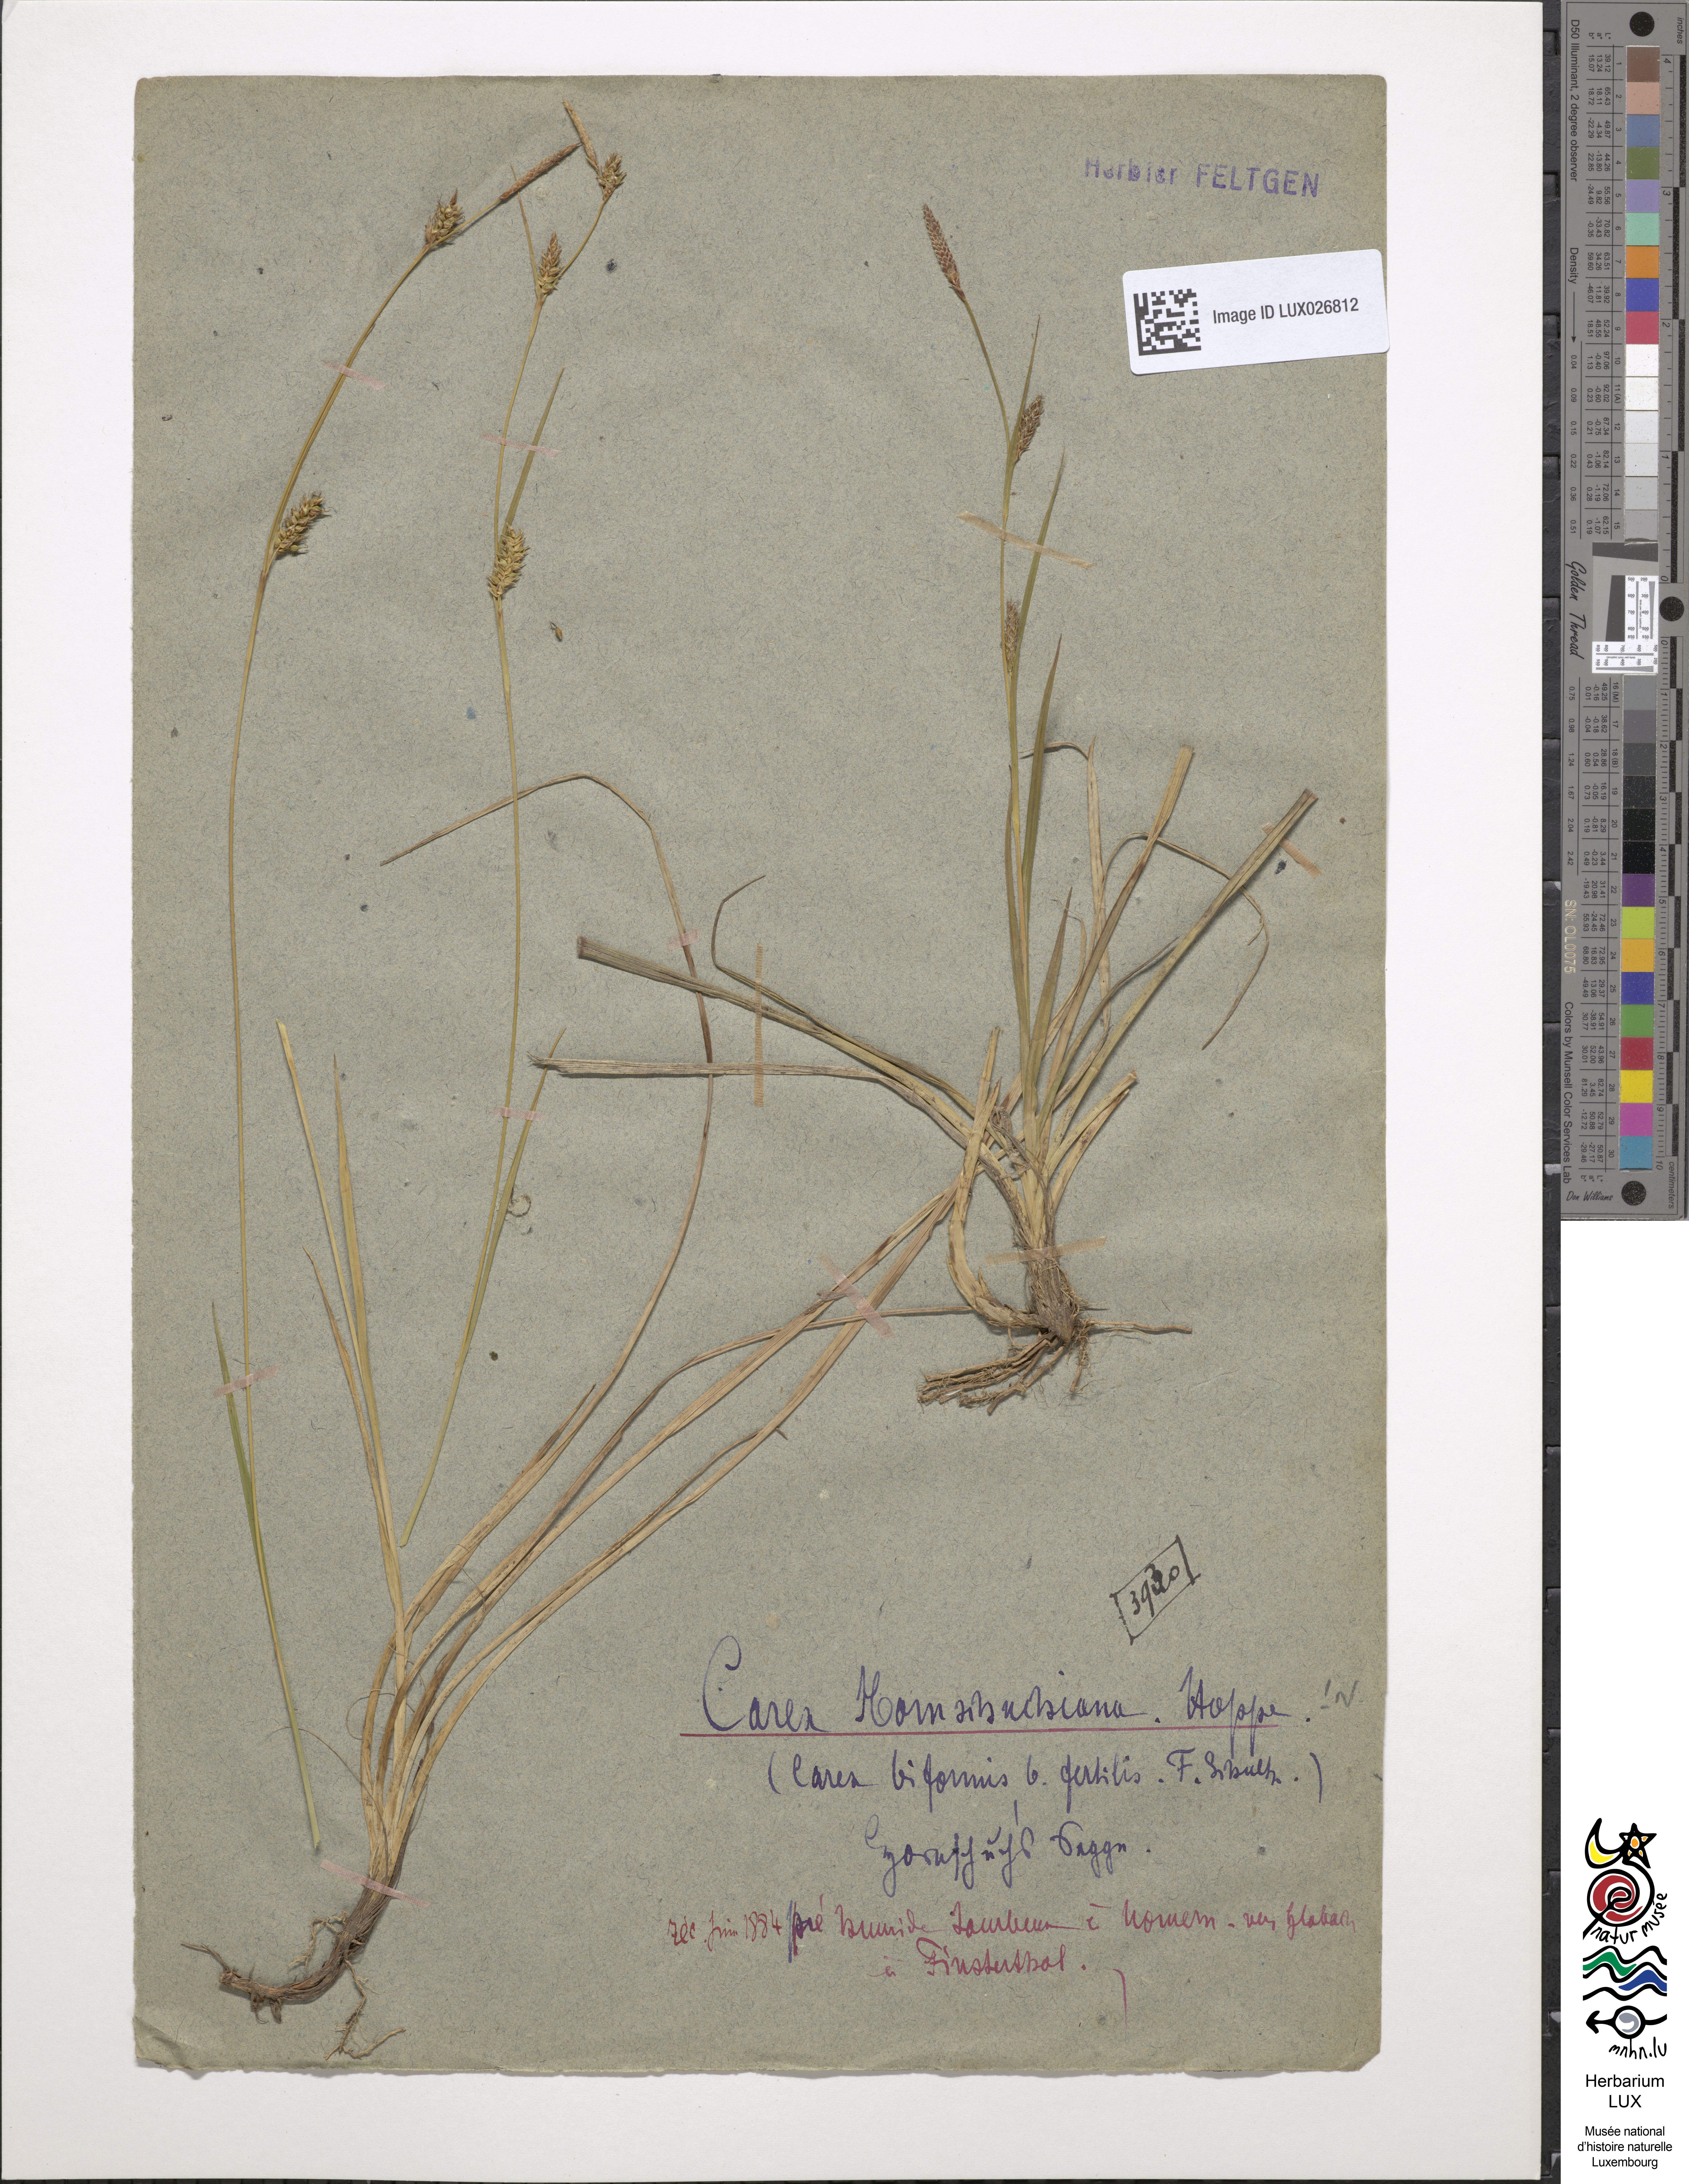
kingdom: Plantae
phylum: Tracheophyta
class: Liliopsida
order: Poales
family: Cyperaceae
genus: Carex
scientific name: Carex hostiana
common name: Tawny sedge
